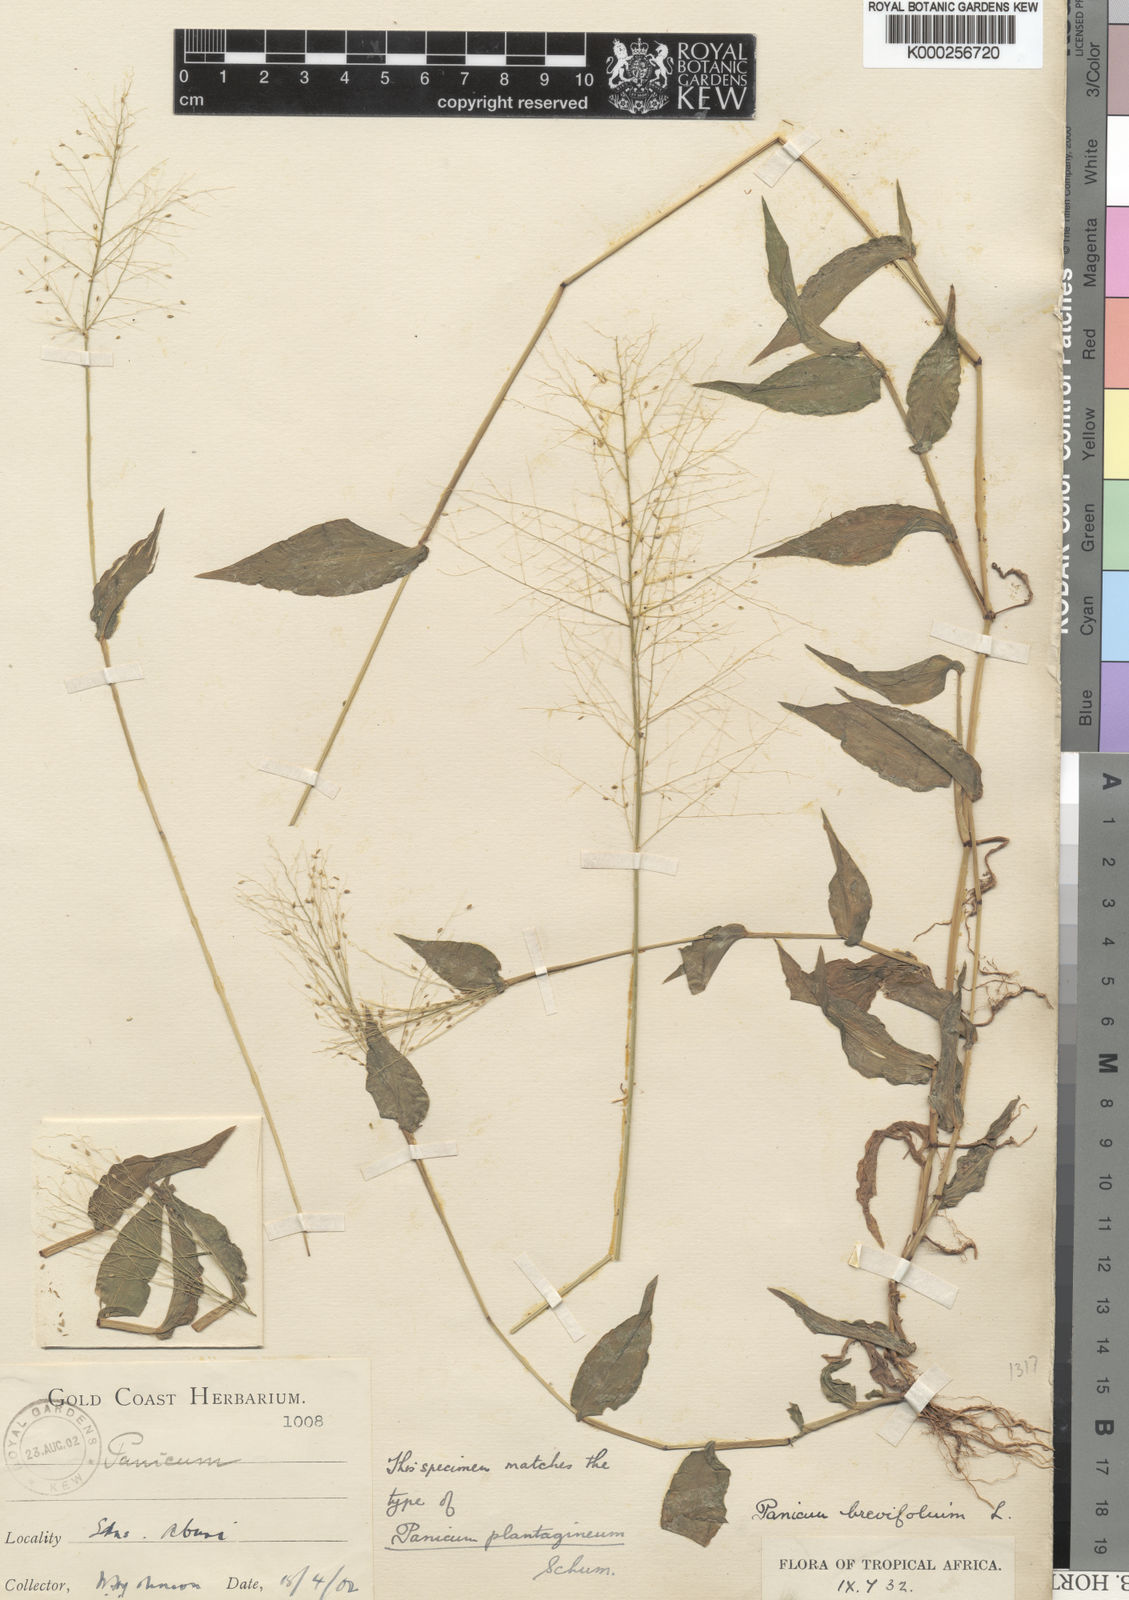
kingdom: Plantae
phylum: Tracheophyta
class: Liliopsida
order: Poales
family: Poaceae
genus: Panicum
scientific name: Panicum brevifolium
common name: Shortleaf panic grass
